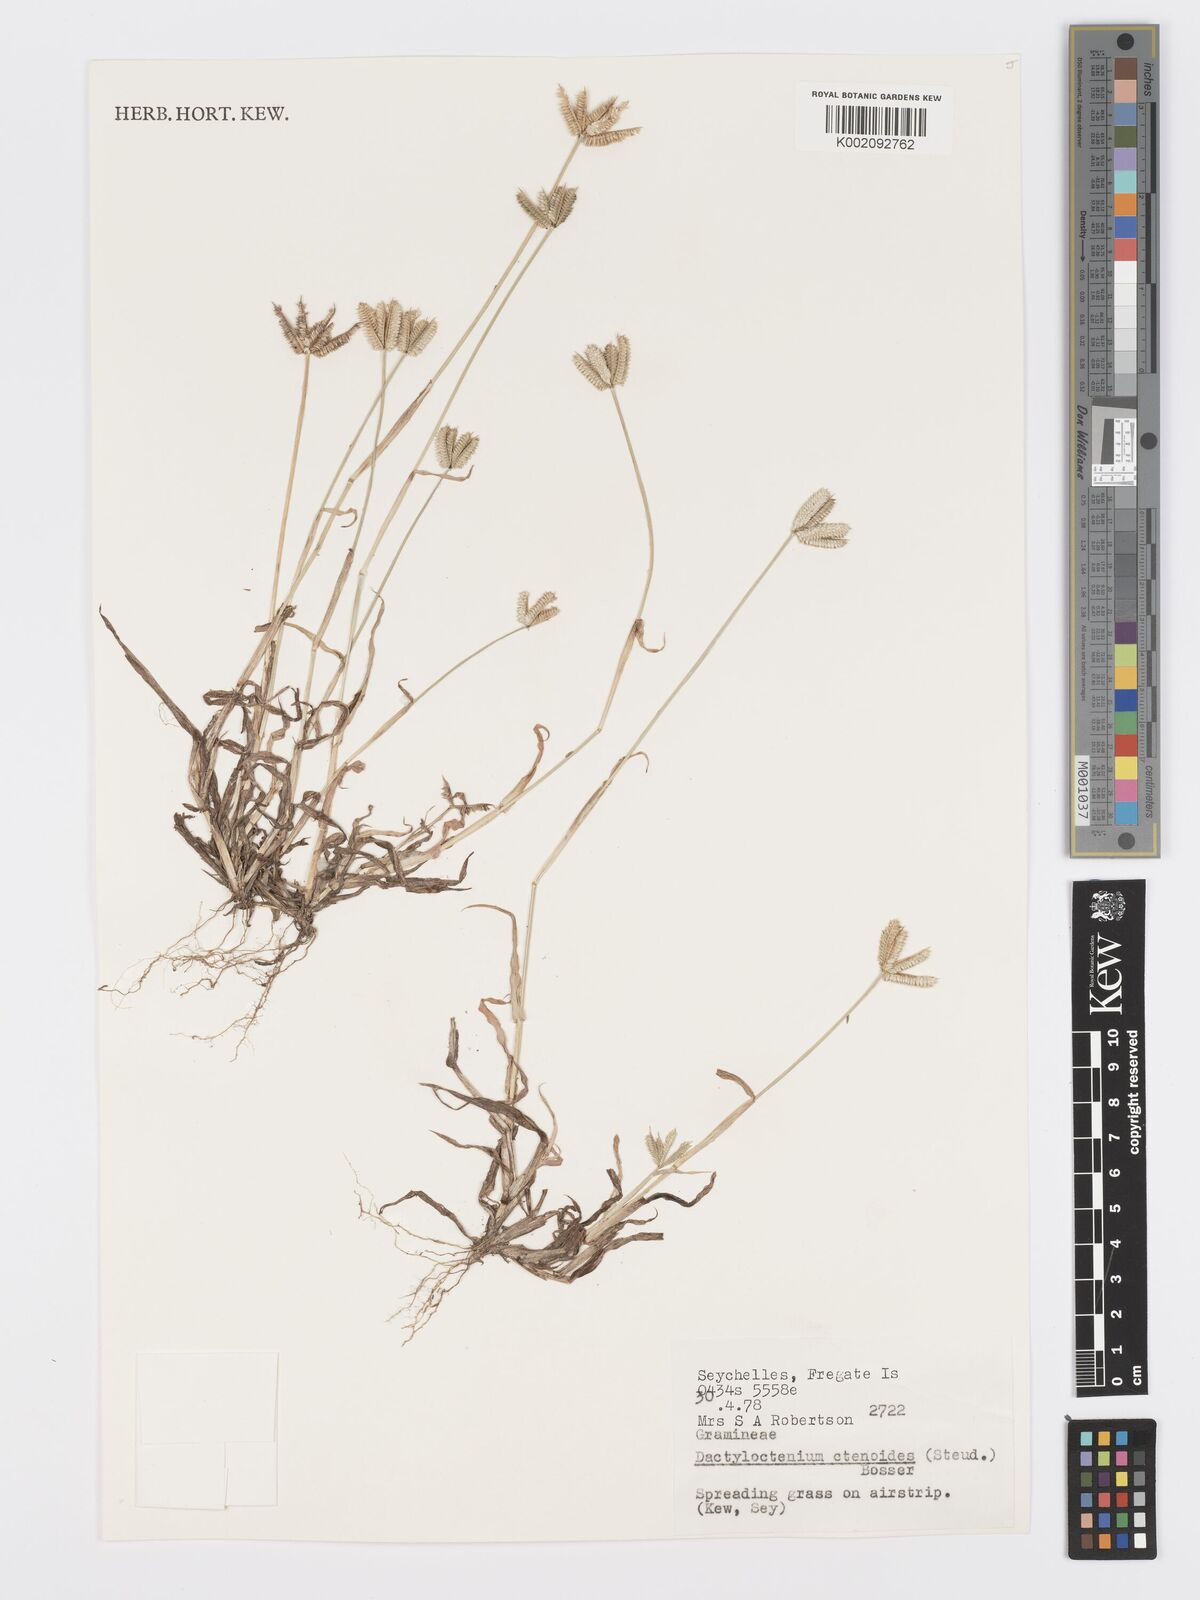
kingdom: Plantae
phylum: Tracheophyta
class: Liliopsida
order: Poales
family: Poaceae
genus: Dactyloctenium
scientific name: Dactyloctenium ctenoides
